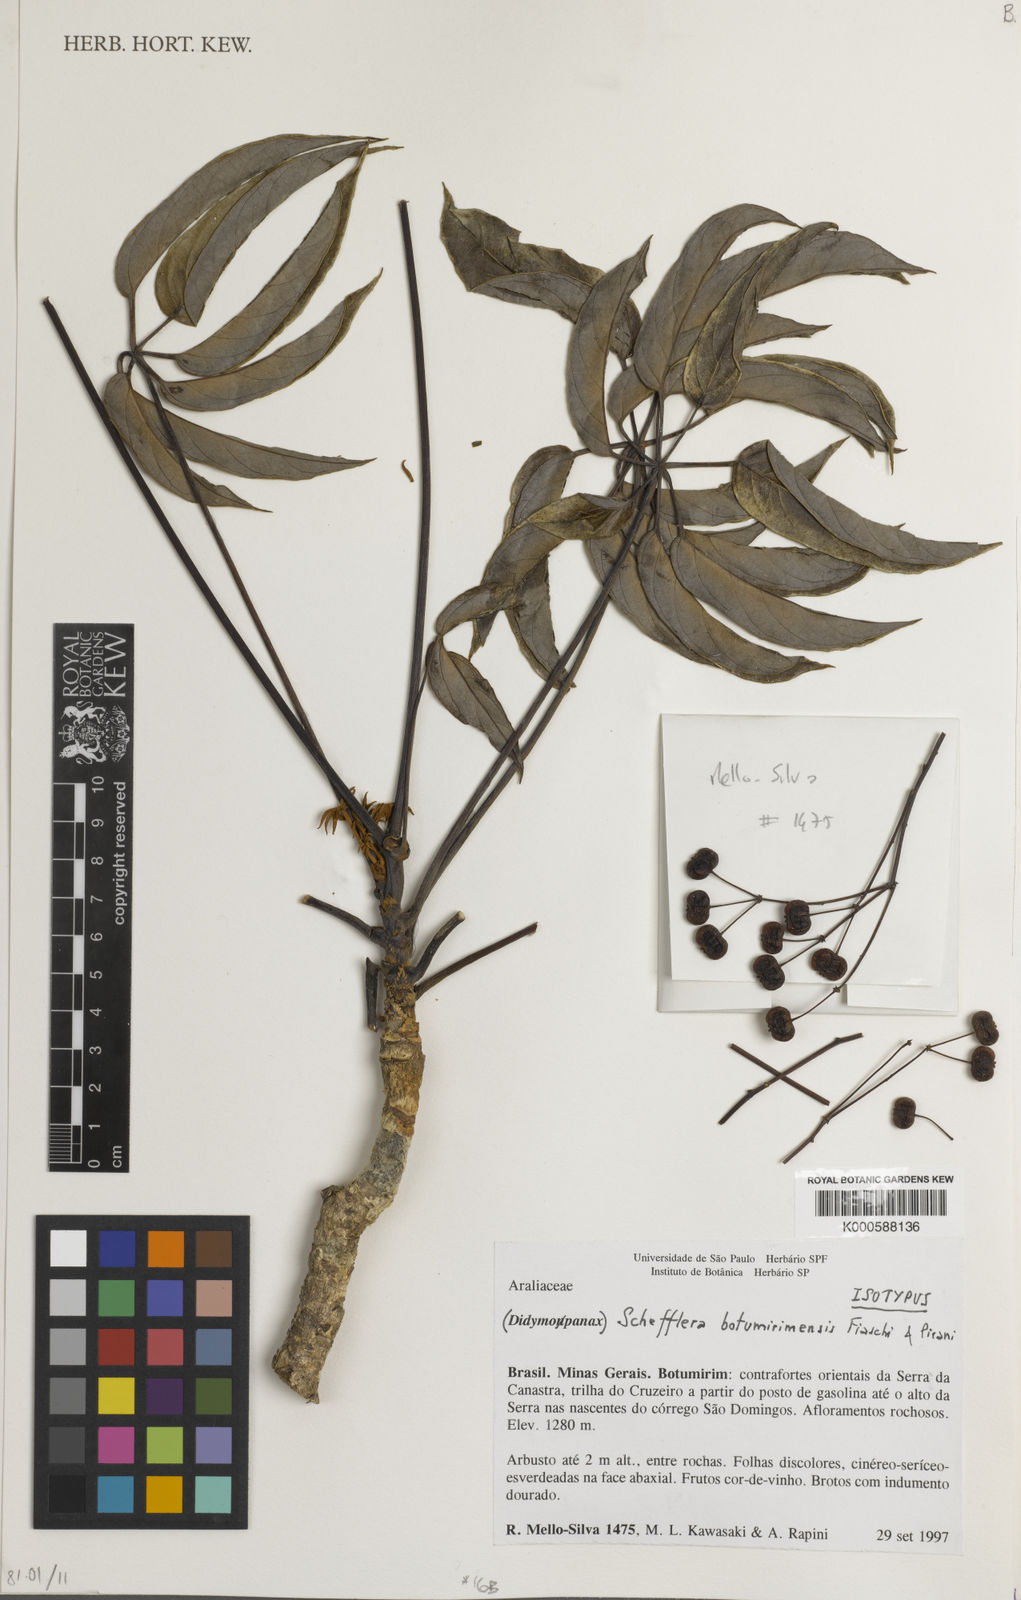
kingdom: Plantae
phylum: Tracheophyta
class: Magnoliopsida
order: Apiales
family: Araliaceae
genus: Didymopanax
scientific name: Didymopanax botumirimensis
